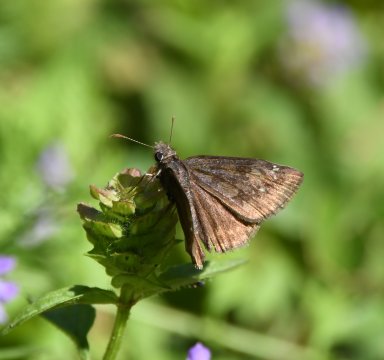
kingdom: Animalia
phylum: Arthropoda
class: Insecta
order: Lepidoptera
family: Hesperiidae
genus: Gesta
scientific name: Gesta
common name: Wild Indigo Duskywing
